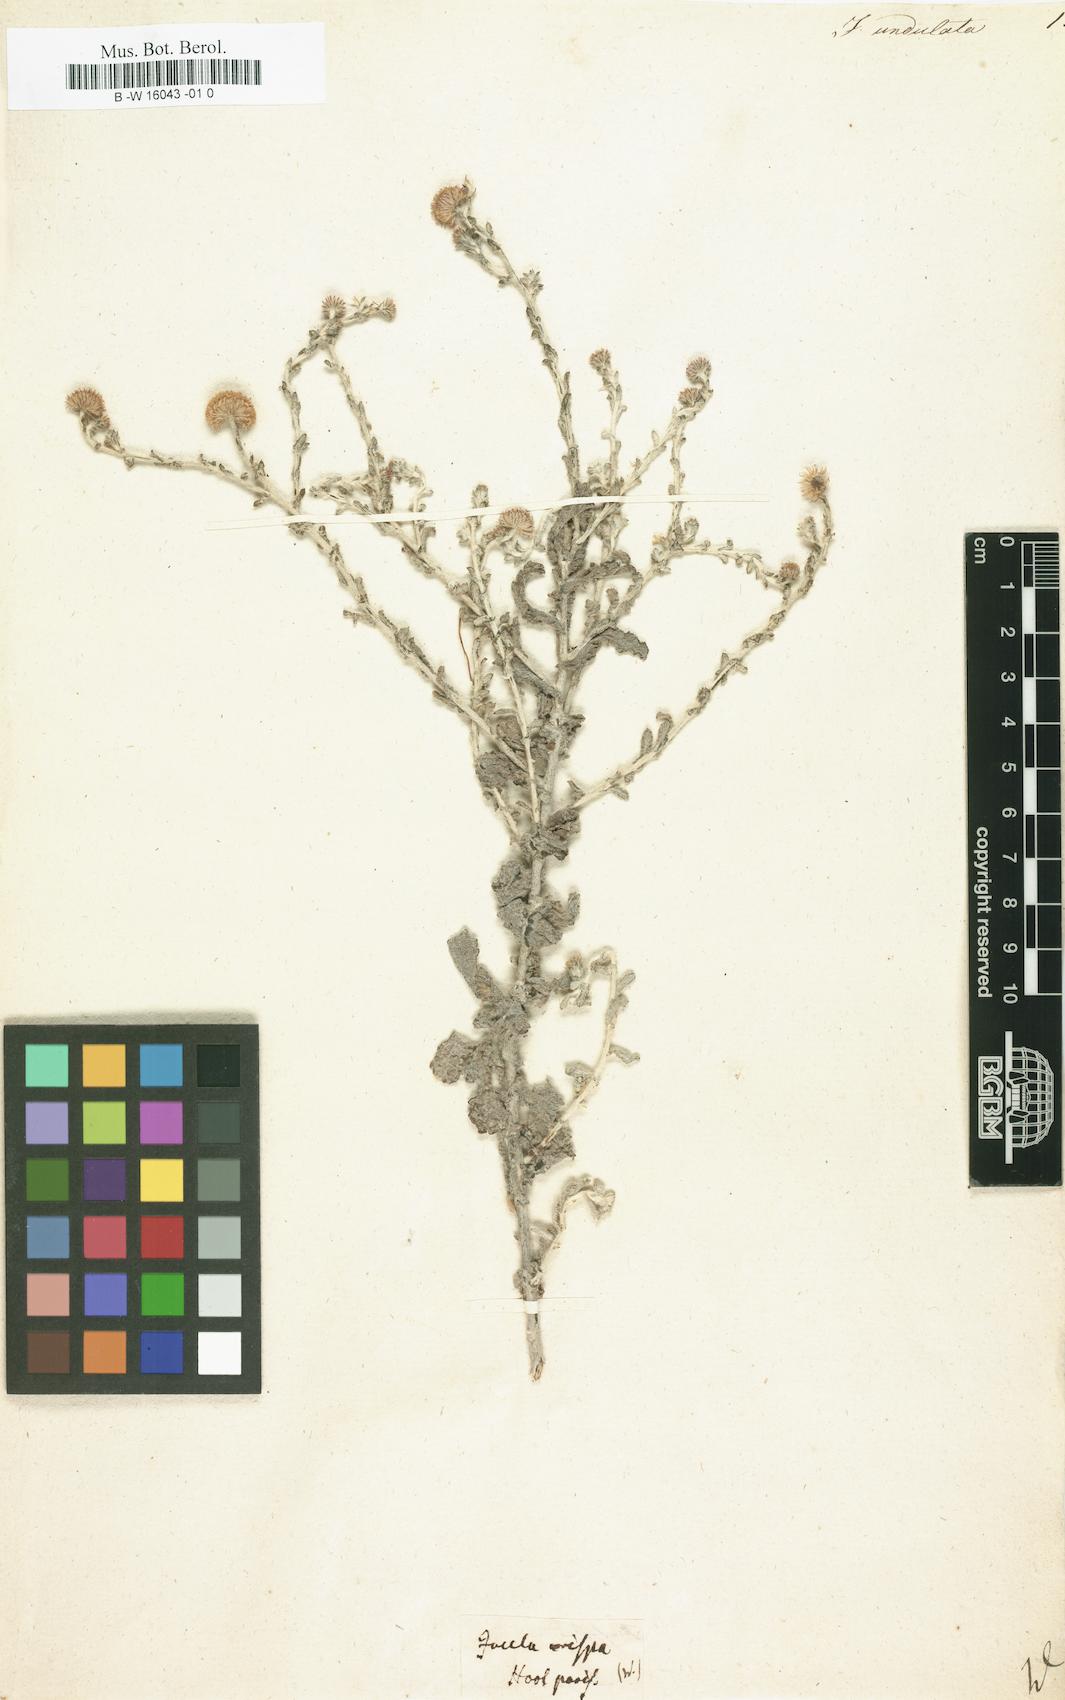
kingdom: Plantae
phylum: Tracheophyta
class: Magnoliopsida
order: Asterales
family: Asteraceae
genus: Pulicaria
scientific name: Pulicaria undulata
